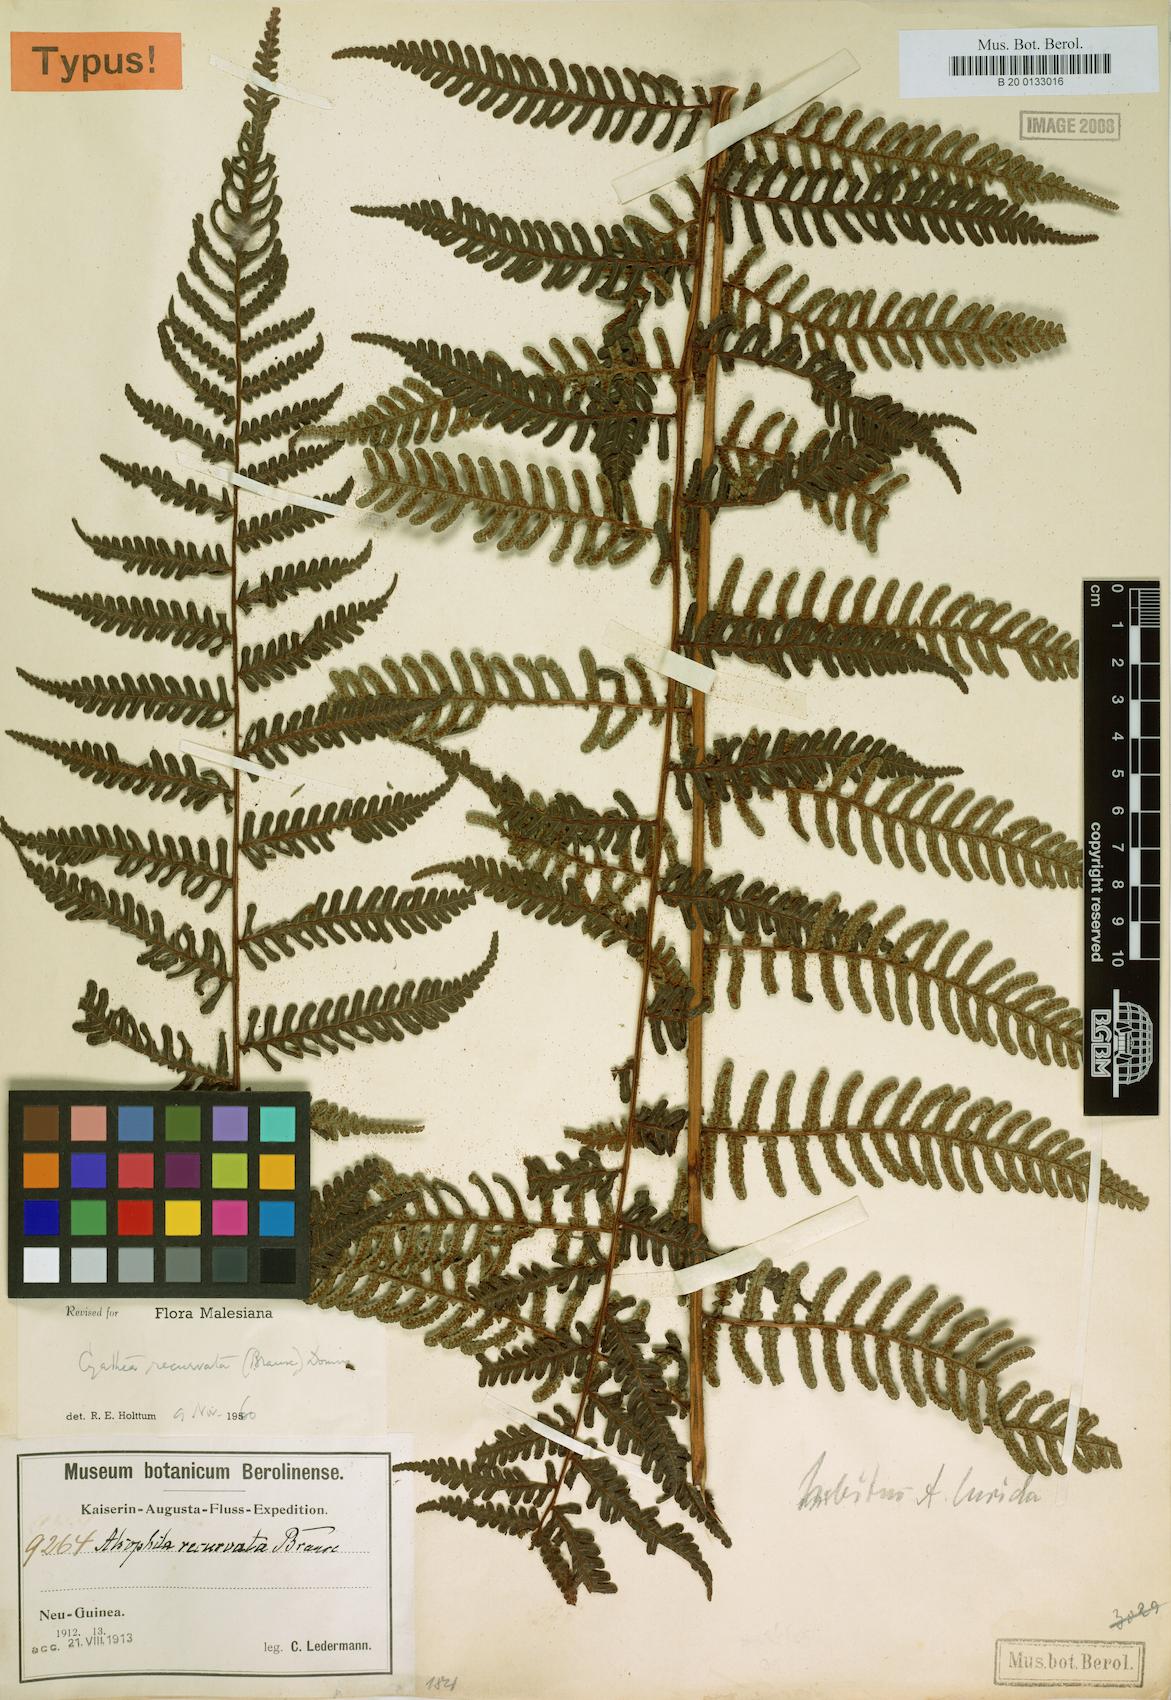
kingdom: Plantae
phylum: Tracheophyta
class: Polypodiopsida
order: Cyatheales
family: Cyatheaceae
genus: Alsophila
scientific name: Alsophila recurvata
